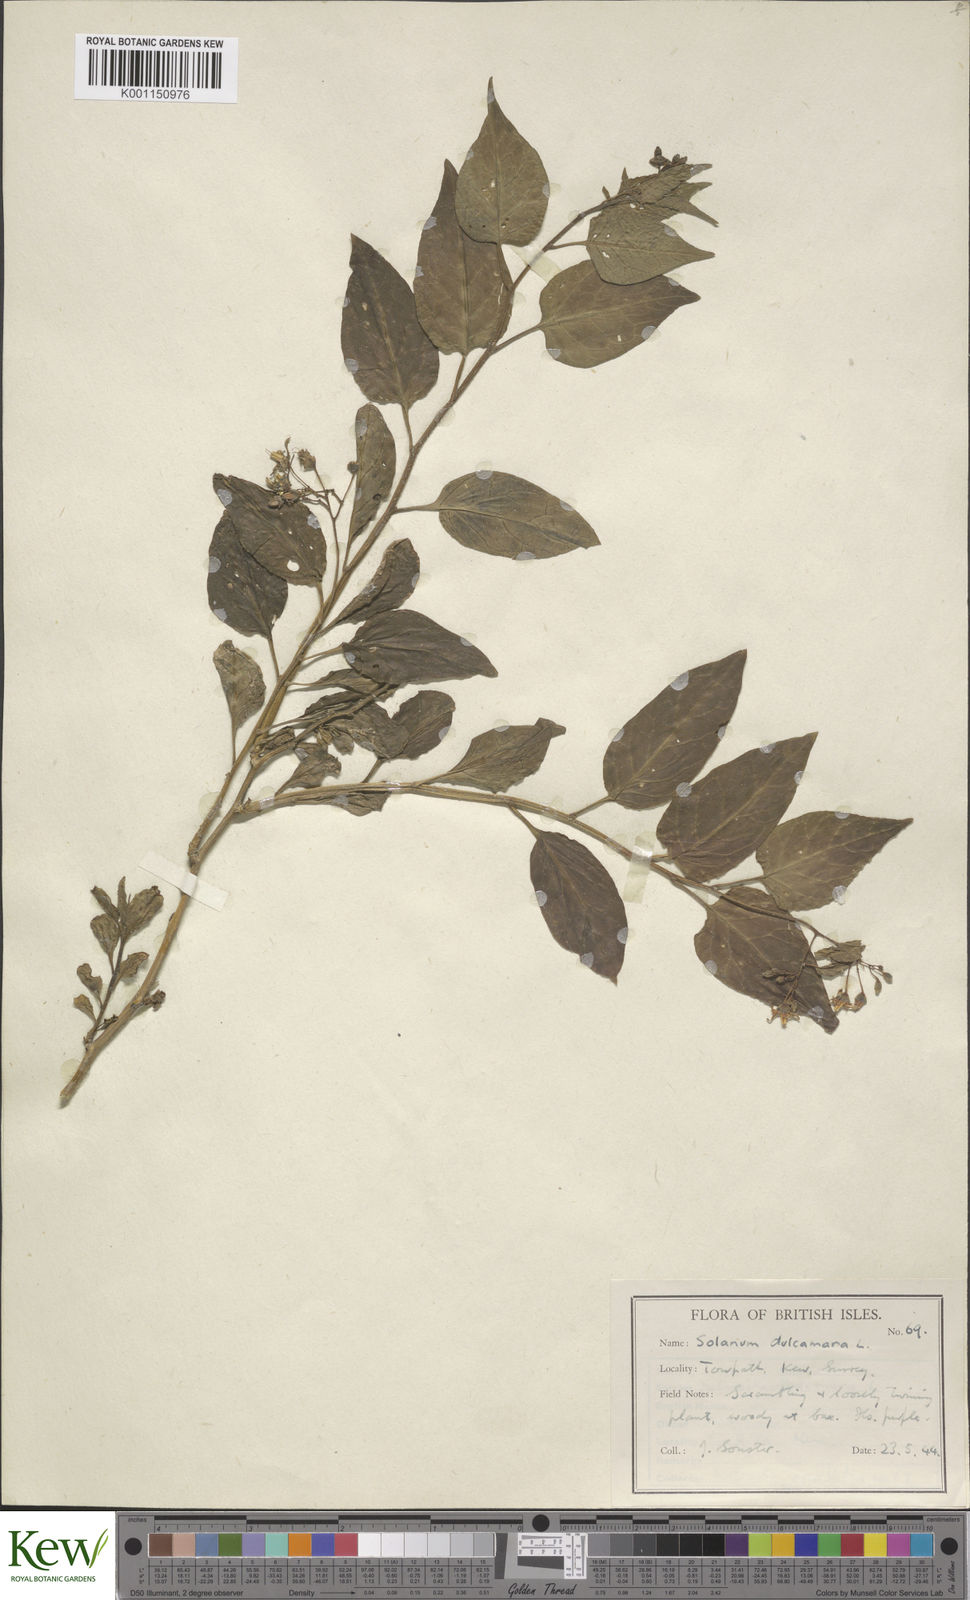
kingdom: Plantae
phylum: Tracheophyta
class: Magnoliopsida
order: Solanales
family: Solanaceae
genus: Solanum
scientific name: Solanum dulcamara
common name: Climbing nightshade
